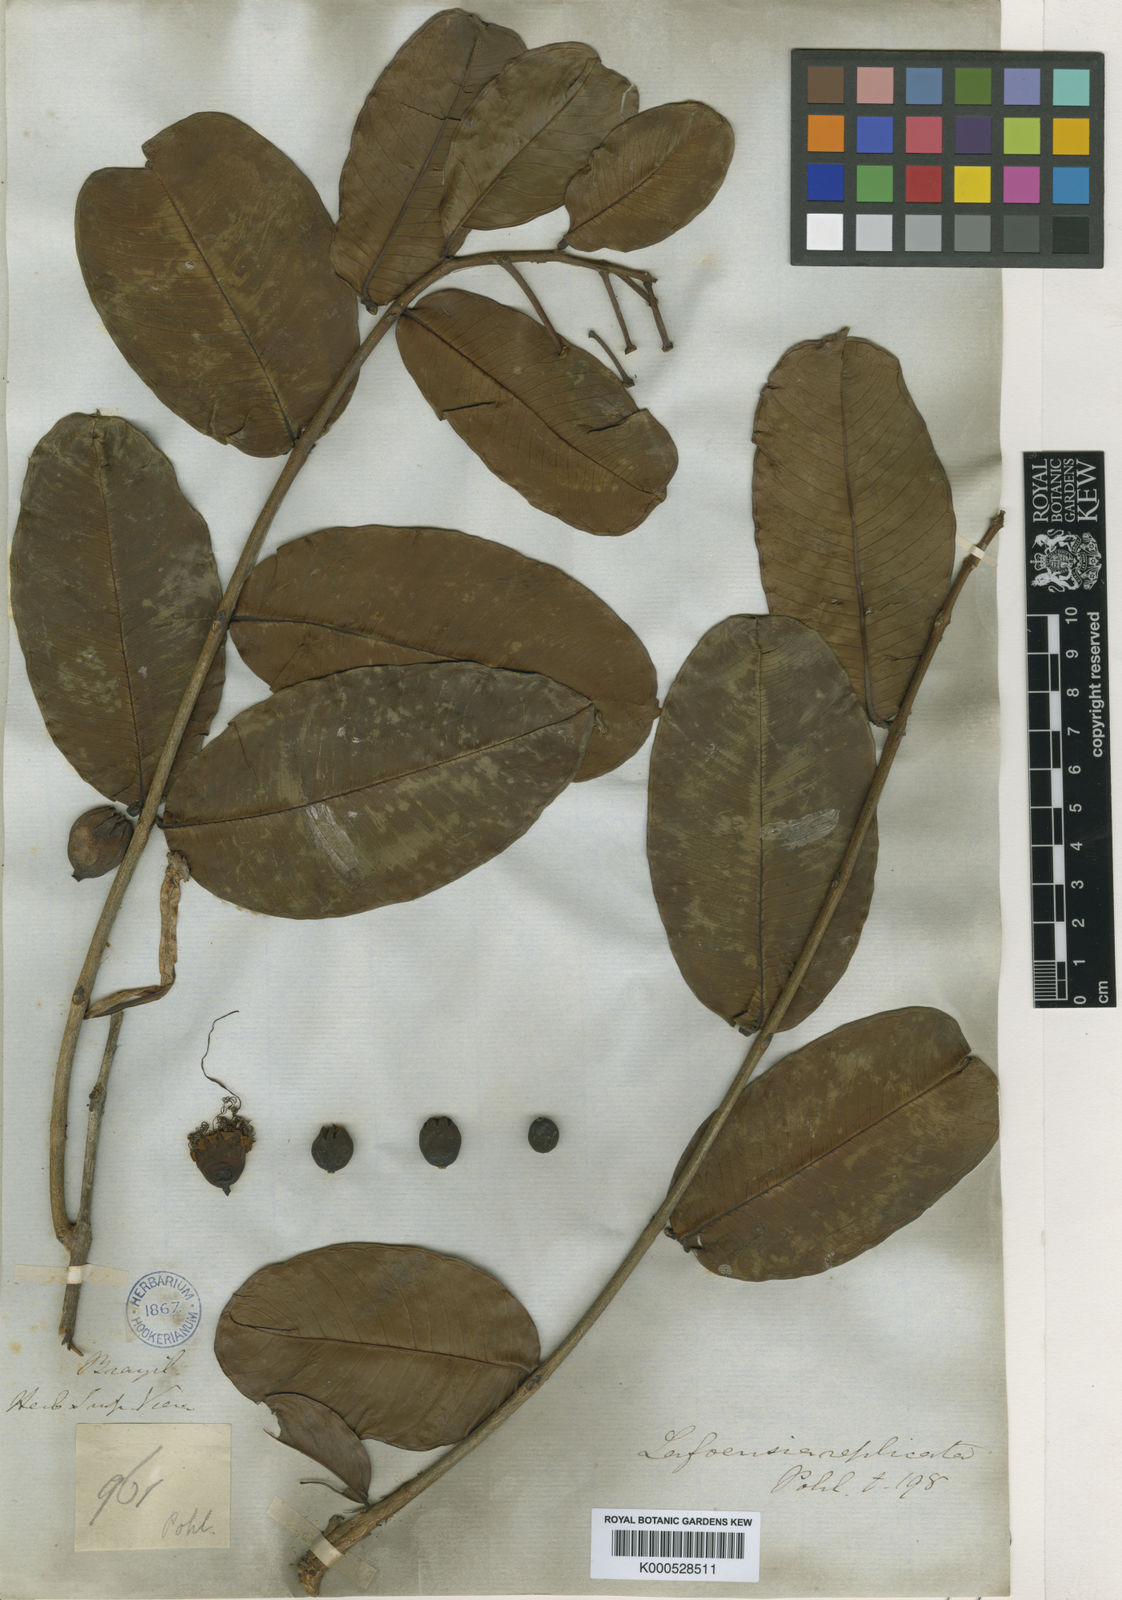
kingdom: Plantae
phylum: Tracheophyta
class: Magnoliopsida
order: Myrtales
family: Lythraceae
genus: Lafoensia
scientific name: Lafoensia vandelliana
